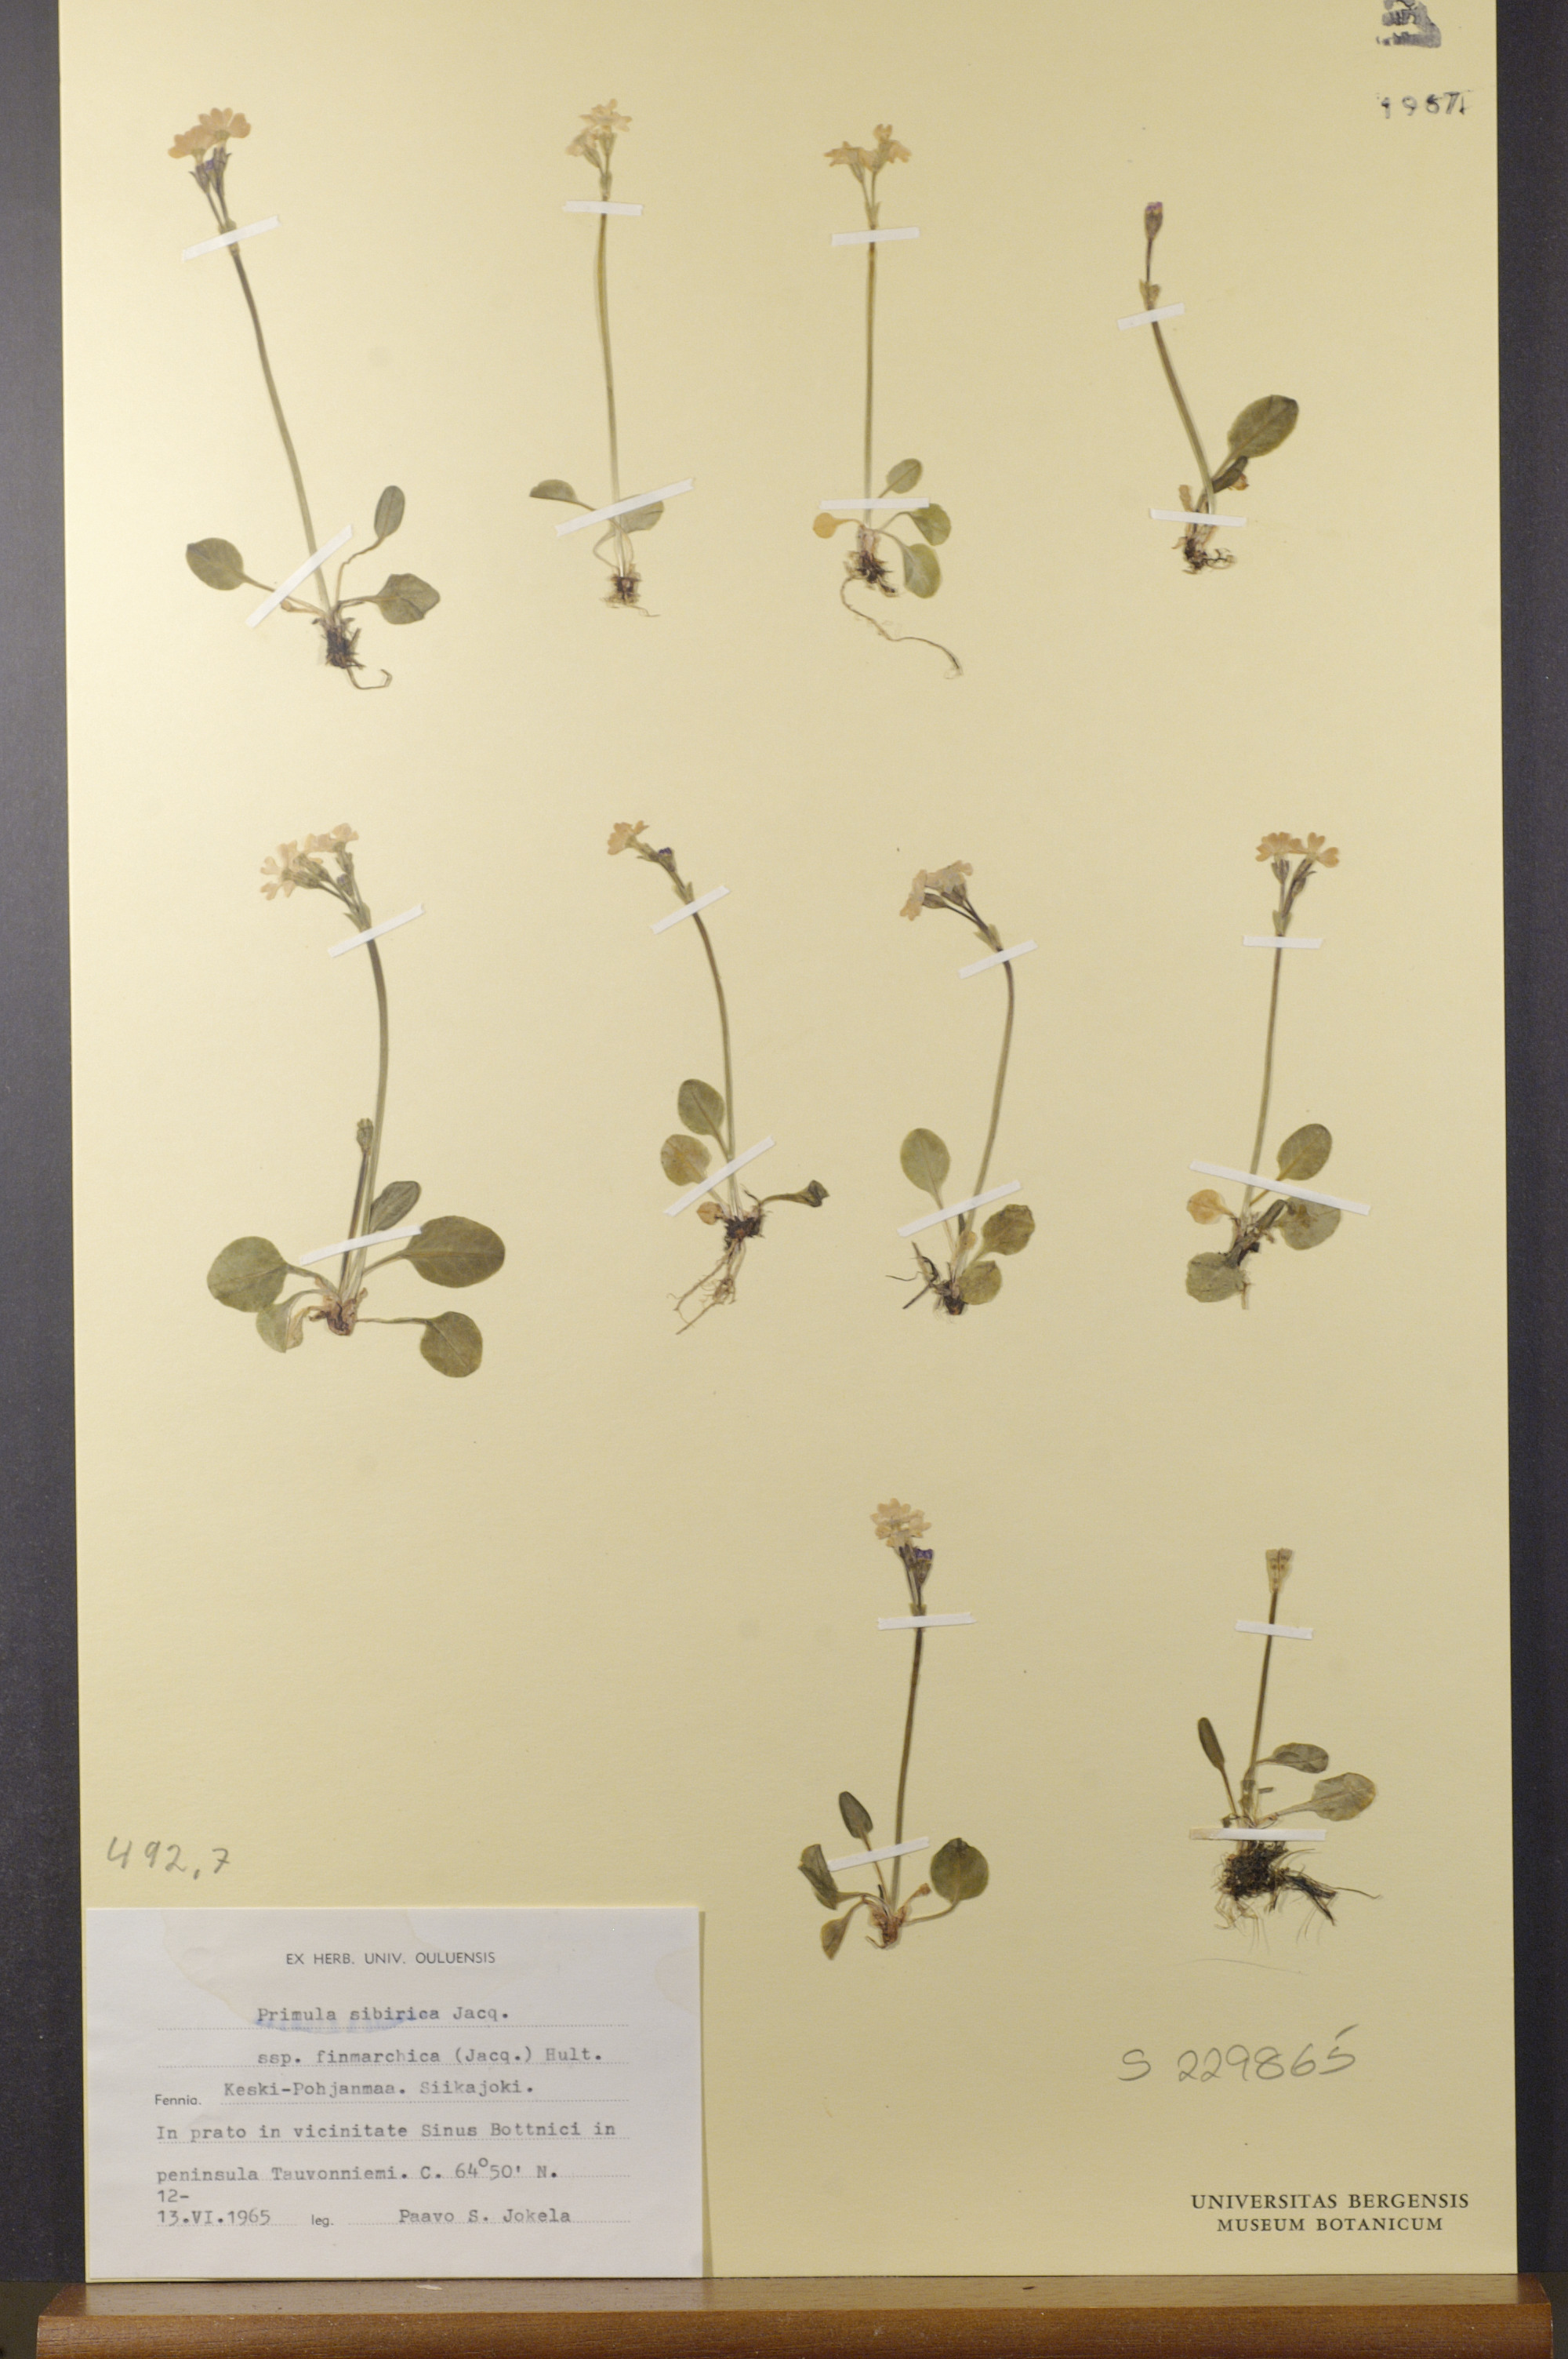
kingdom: Plantae
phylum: Tracheophyta
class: Magnoliopsida
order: Ericales
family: Primulaceae
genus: Primula
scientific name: Primula nutans
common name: Siberian primrose
